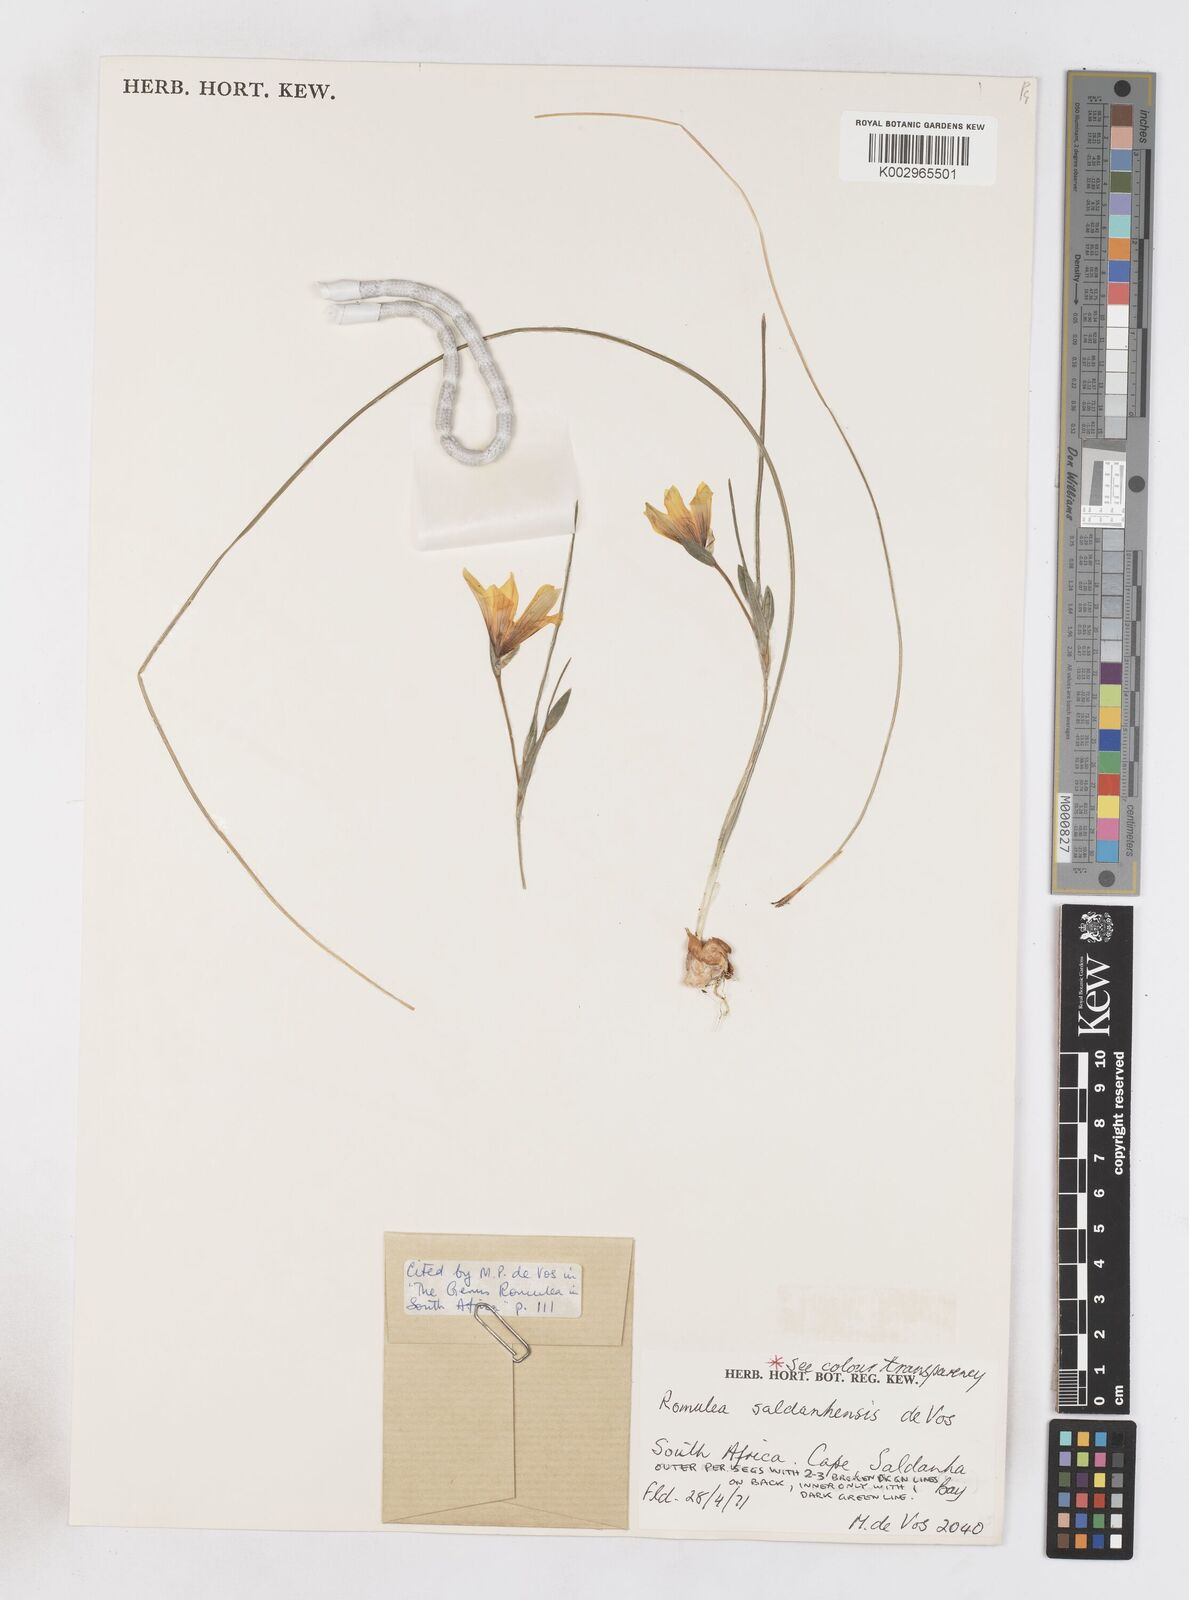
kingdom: Plantae
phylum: Tracheophyta
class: Liliopsida
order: Asparagales
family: Iridaceae
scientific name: Iridaceae
